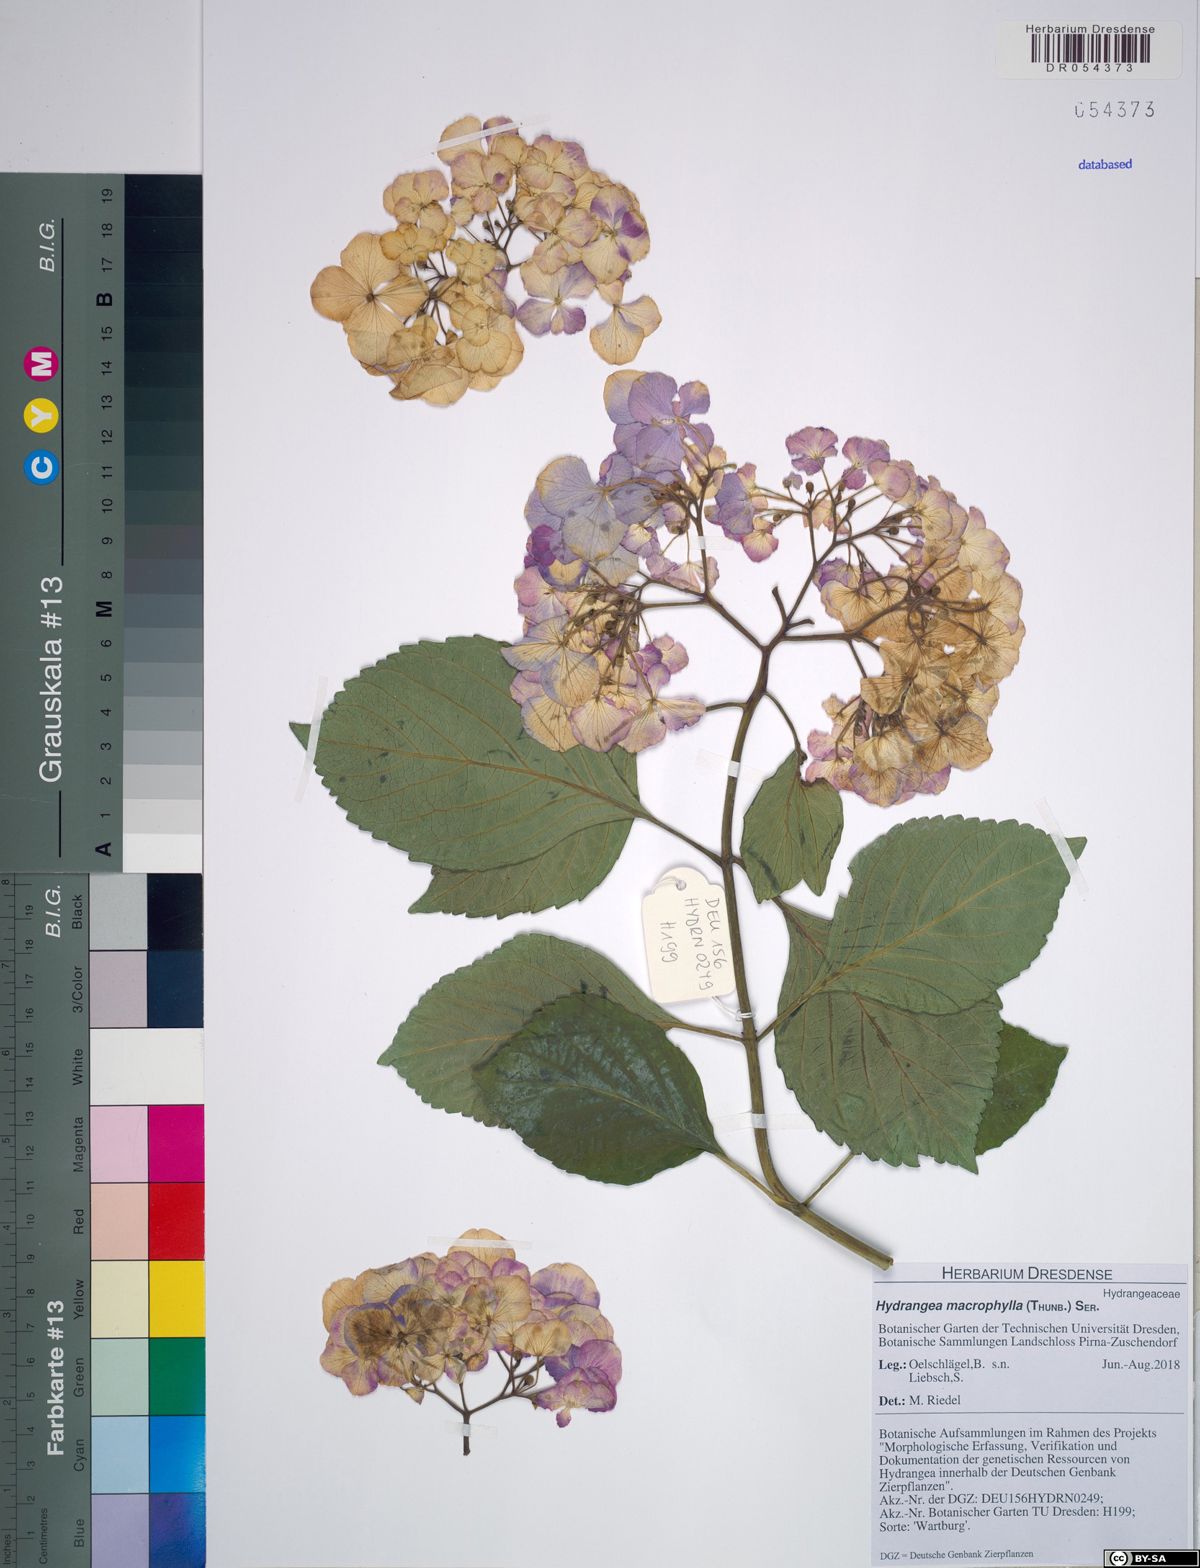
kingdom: Plantae
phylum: Tracheophyta
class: Magnoliopsida
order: Cornales
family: Hydrangeaceae
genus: Hydrangea
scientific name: Hydrangea macrophylla
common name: Hydrangea
